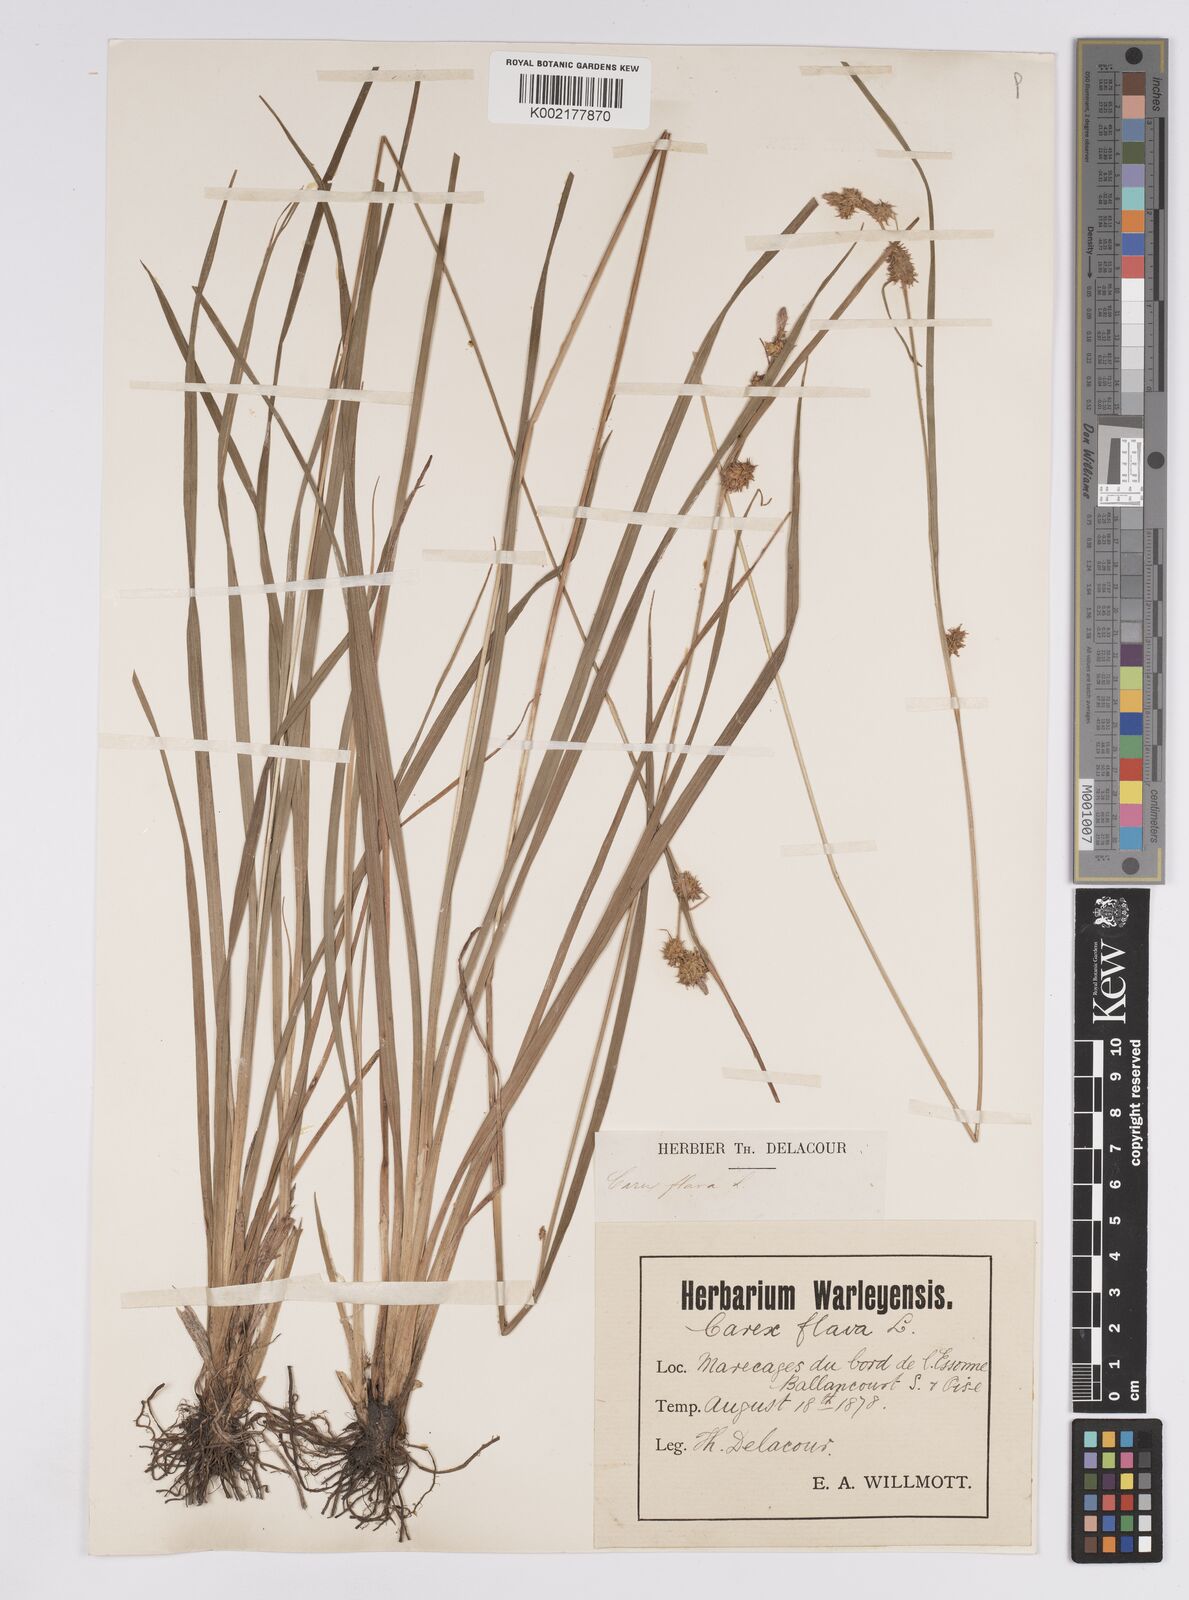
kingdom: Plantae
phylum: Tracheophyta
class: Liliopsida
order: Poales
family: Cyperaceae
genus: Carex
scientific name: Carex flava
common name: Large yellow-sedge
